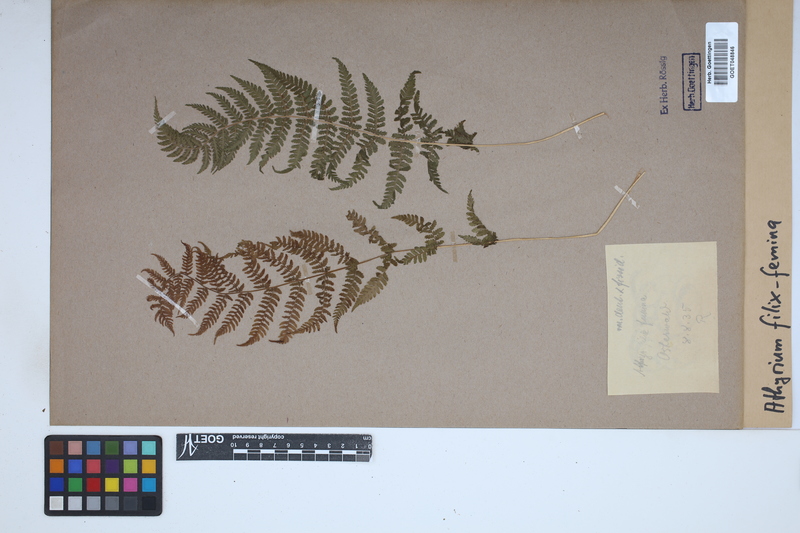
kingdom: Plantae
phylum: Tracheophyta
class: Polypodiopsida
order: Polypodiales
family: Athyriaceae
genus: Athyrium
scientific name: Athyrium filix-femina
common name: Lady fern
